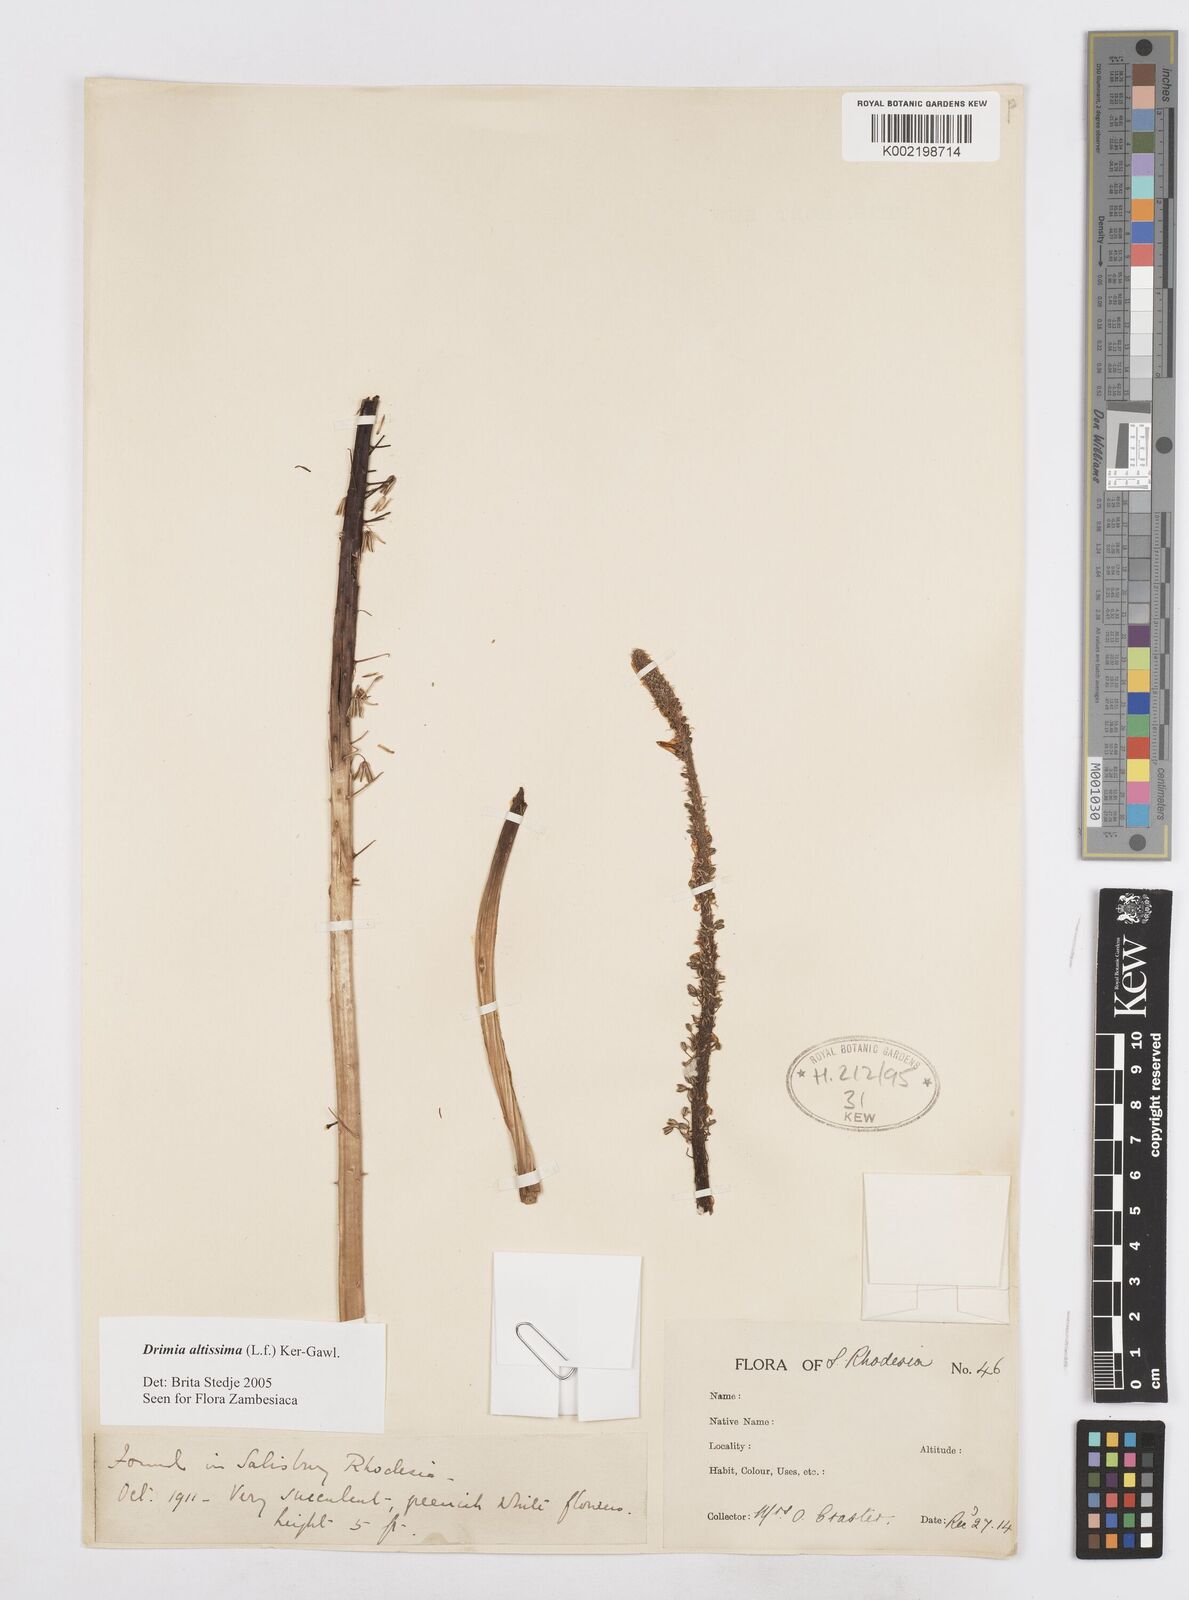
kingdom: Plantae
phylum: Tracheophyta
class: Liliopsida
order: Asparagales
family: Asparagaceae
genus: Drimia
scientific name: Drimia
